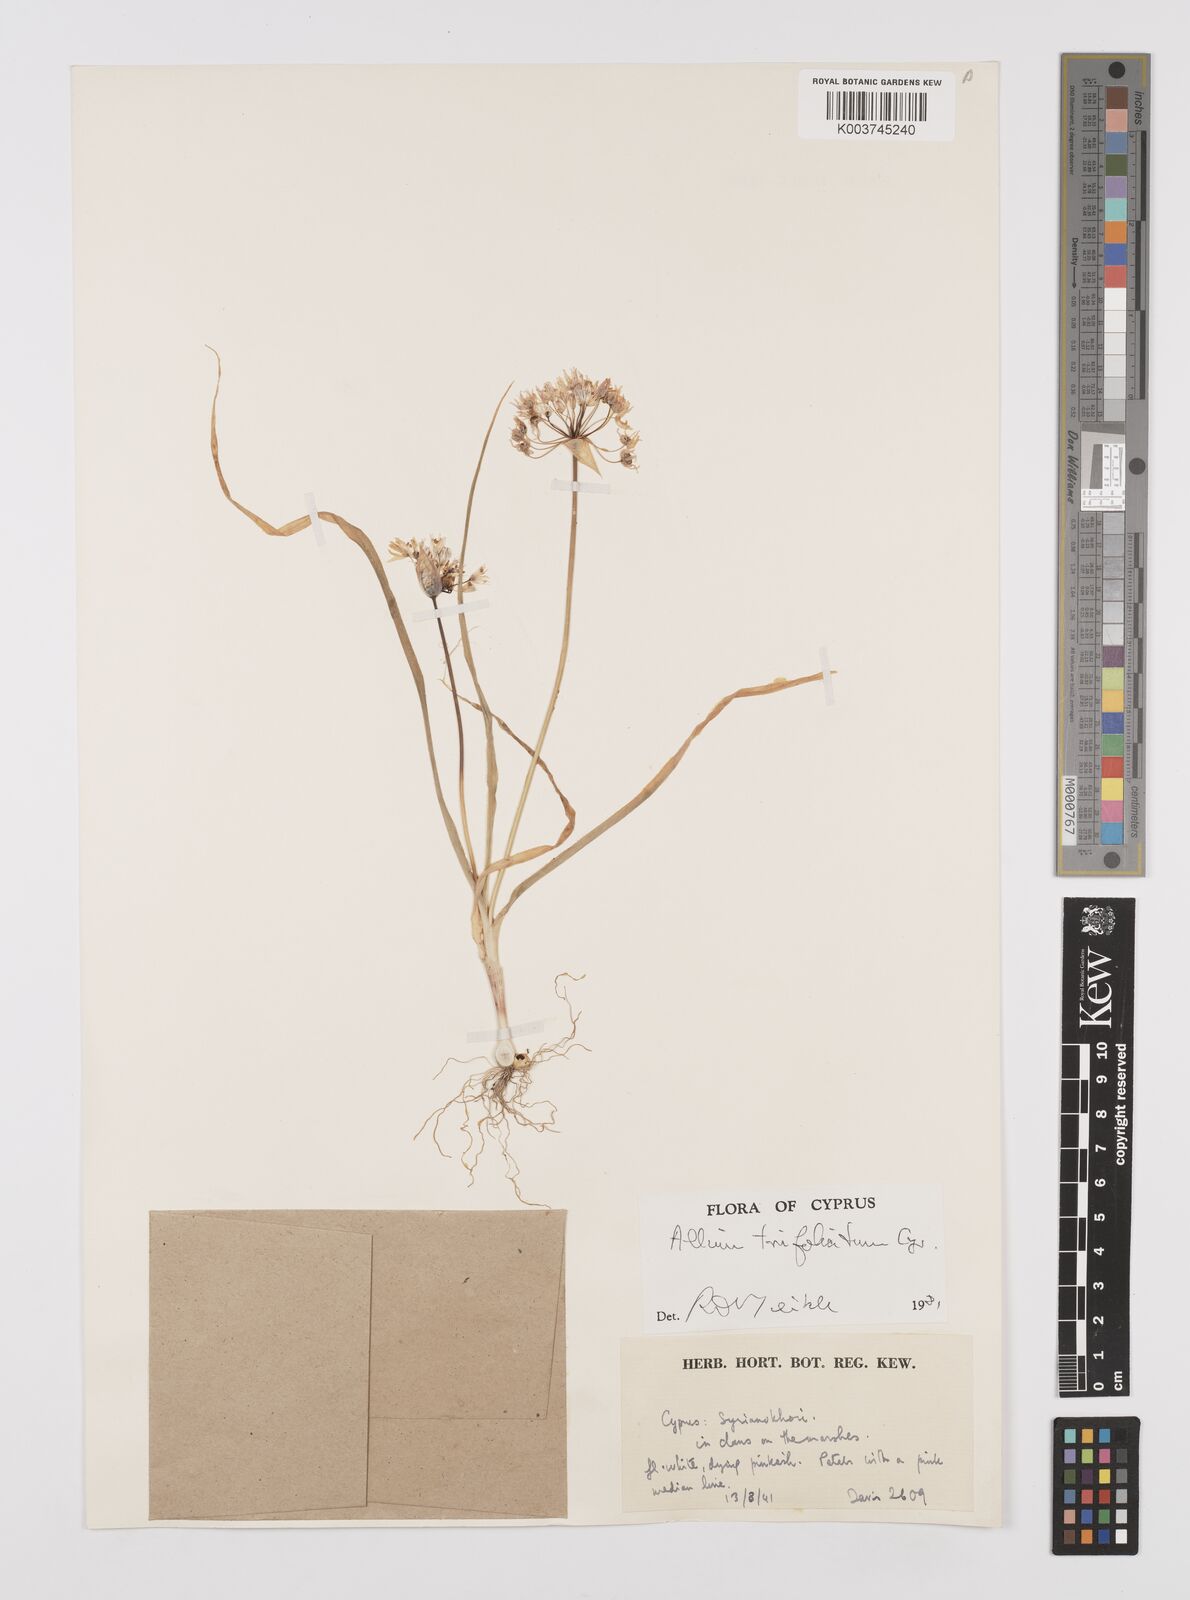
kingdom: Plantae
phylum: Tracheophyta
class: Liliopsida
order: Asparagales
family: Amaryllidaceae
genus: Allium
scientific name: Allium trifoliatum
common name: Pink garlic
